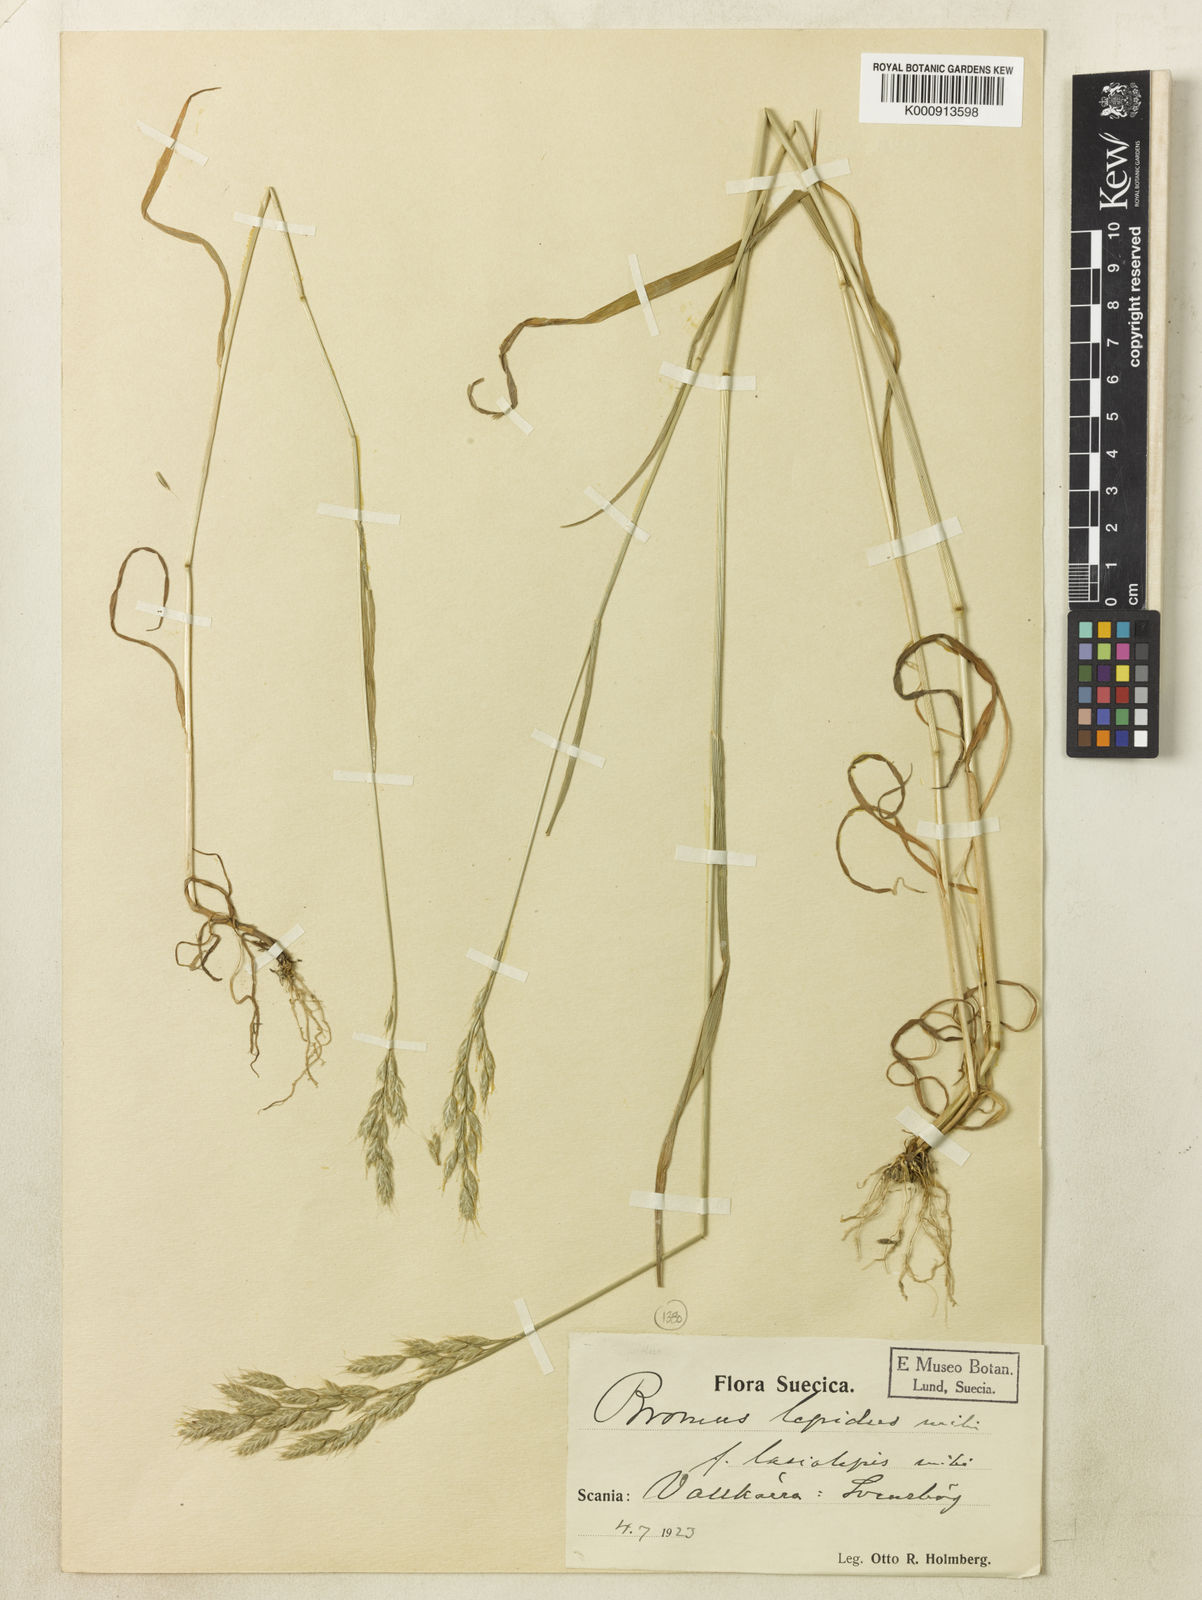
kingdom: Plantae
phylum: Tracheophyta
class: Liliopsida
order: Poales
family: Poaceae
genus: Bromus
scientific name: Bromus lepidus
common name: Slender soft-brome
